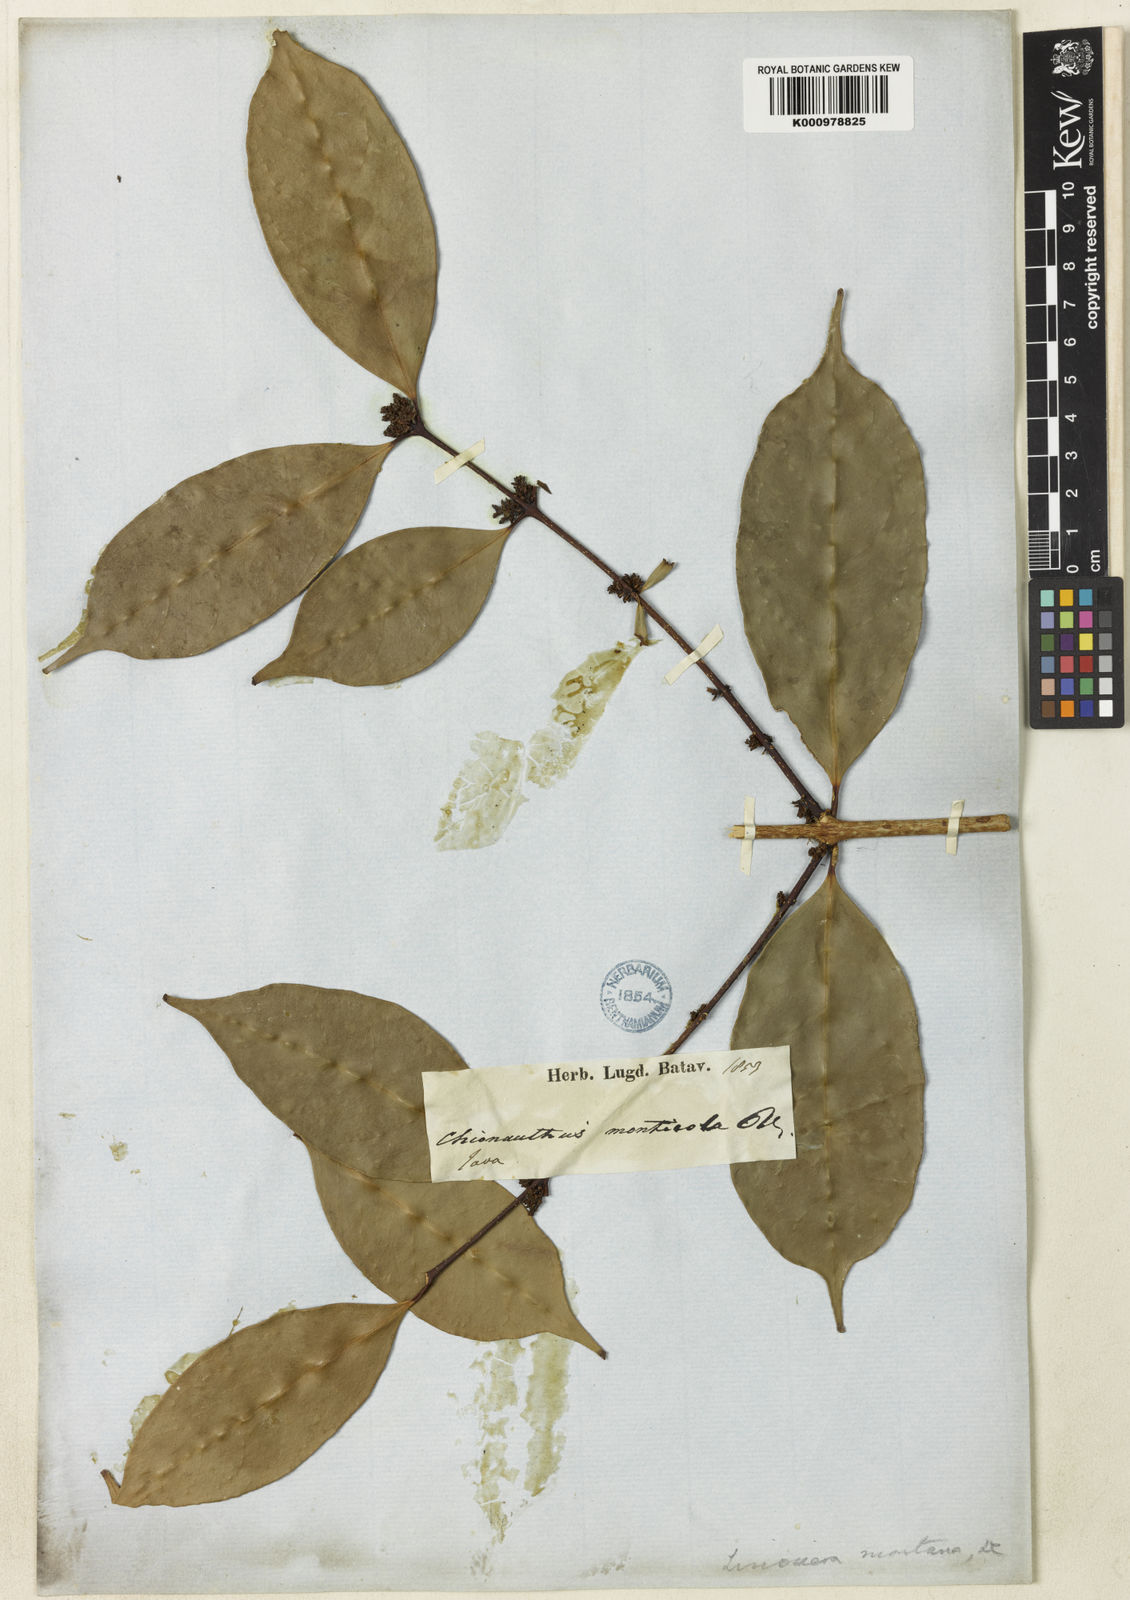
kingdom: Plantae
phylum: Tracheophyta
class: Magnoliopsida
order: Lamiales
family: Oleaceae
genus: Chionanthus
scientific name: Chionanthus montanus
